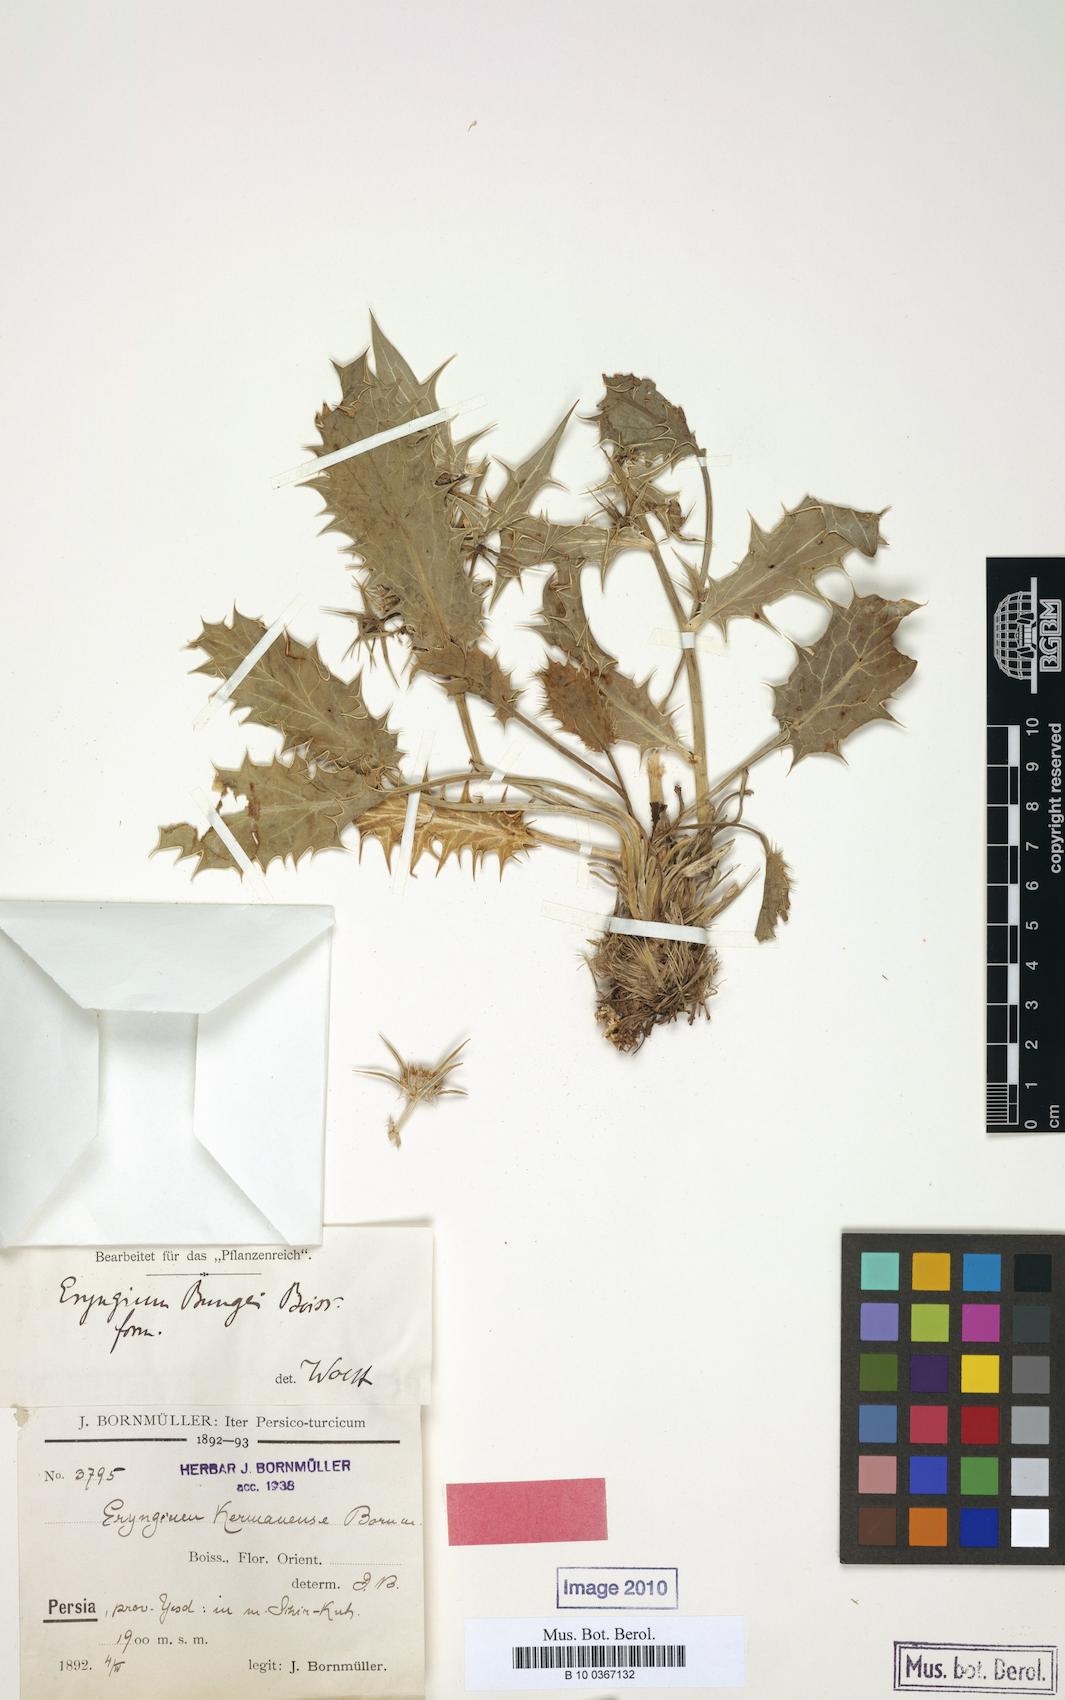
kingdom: Plantae
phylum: Tracheophyta
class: Magnoliopsida
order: Apiales
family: Apiaceae
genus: Eryngium
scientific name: Eryngium bungei
